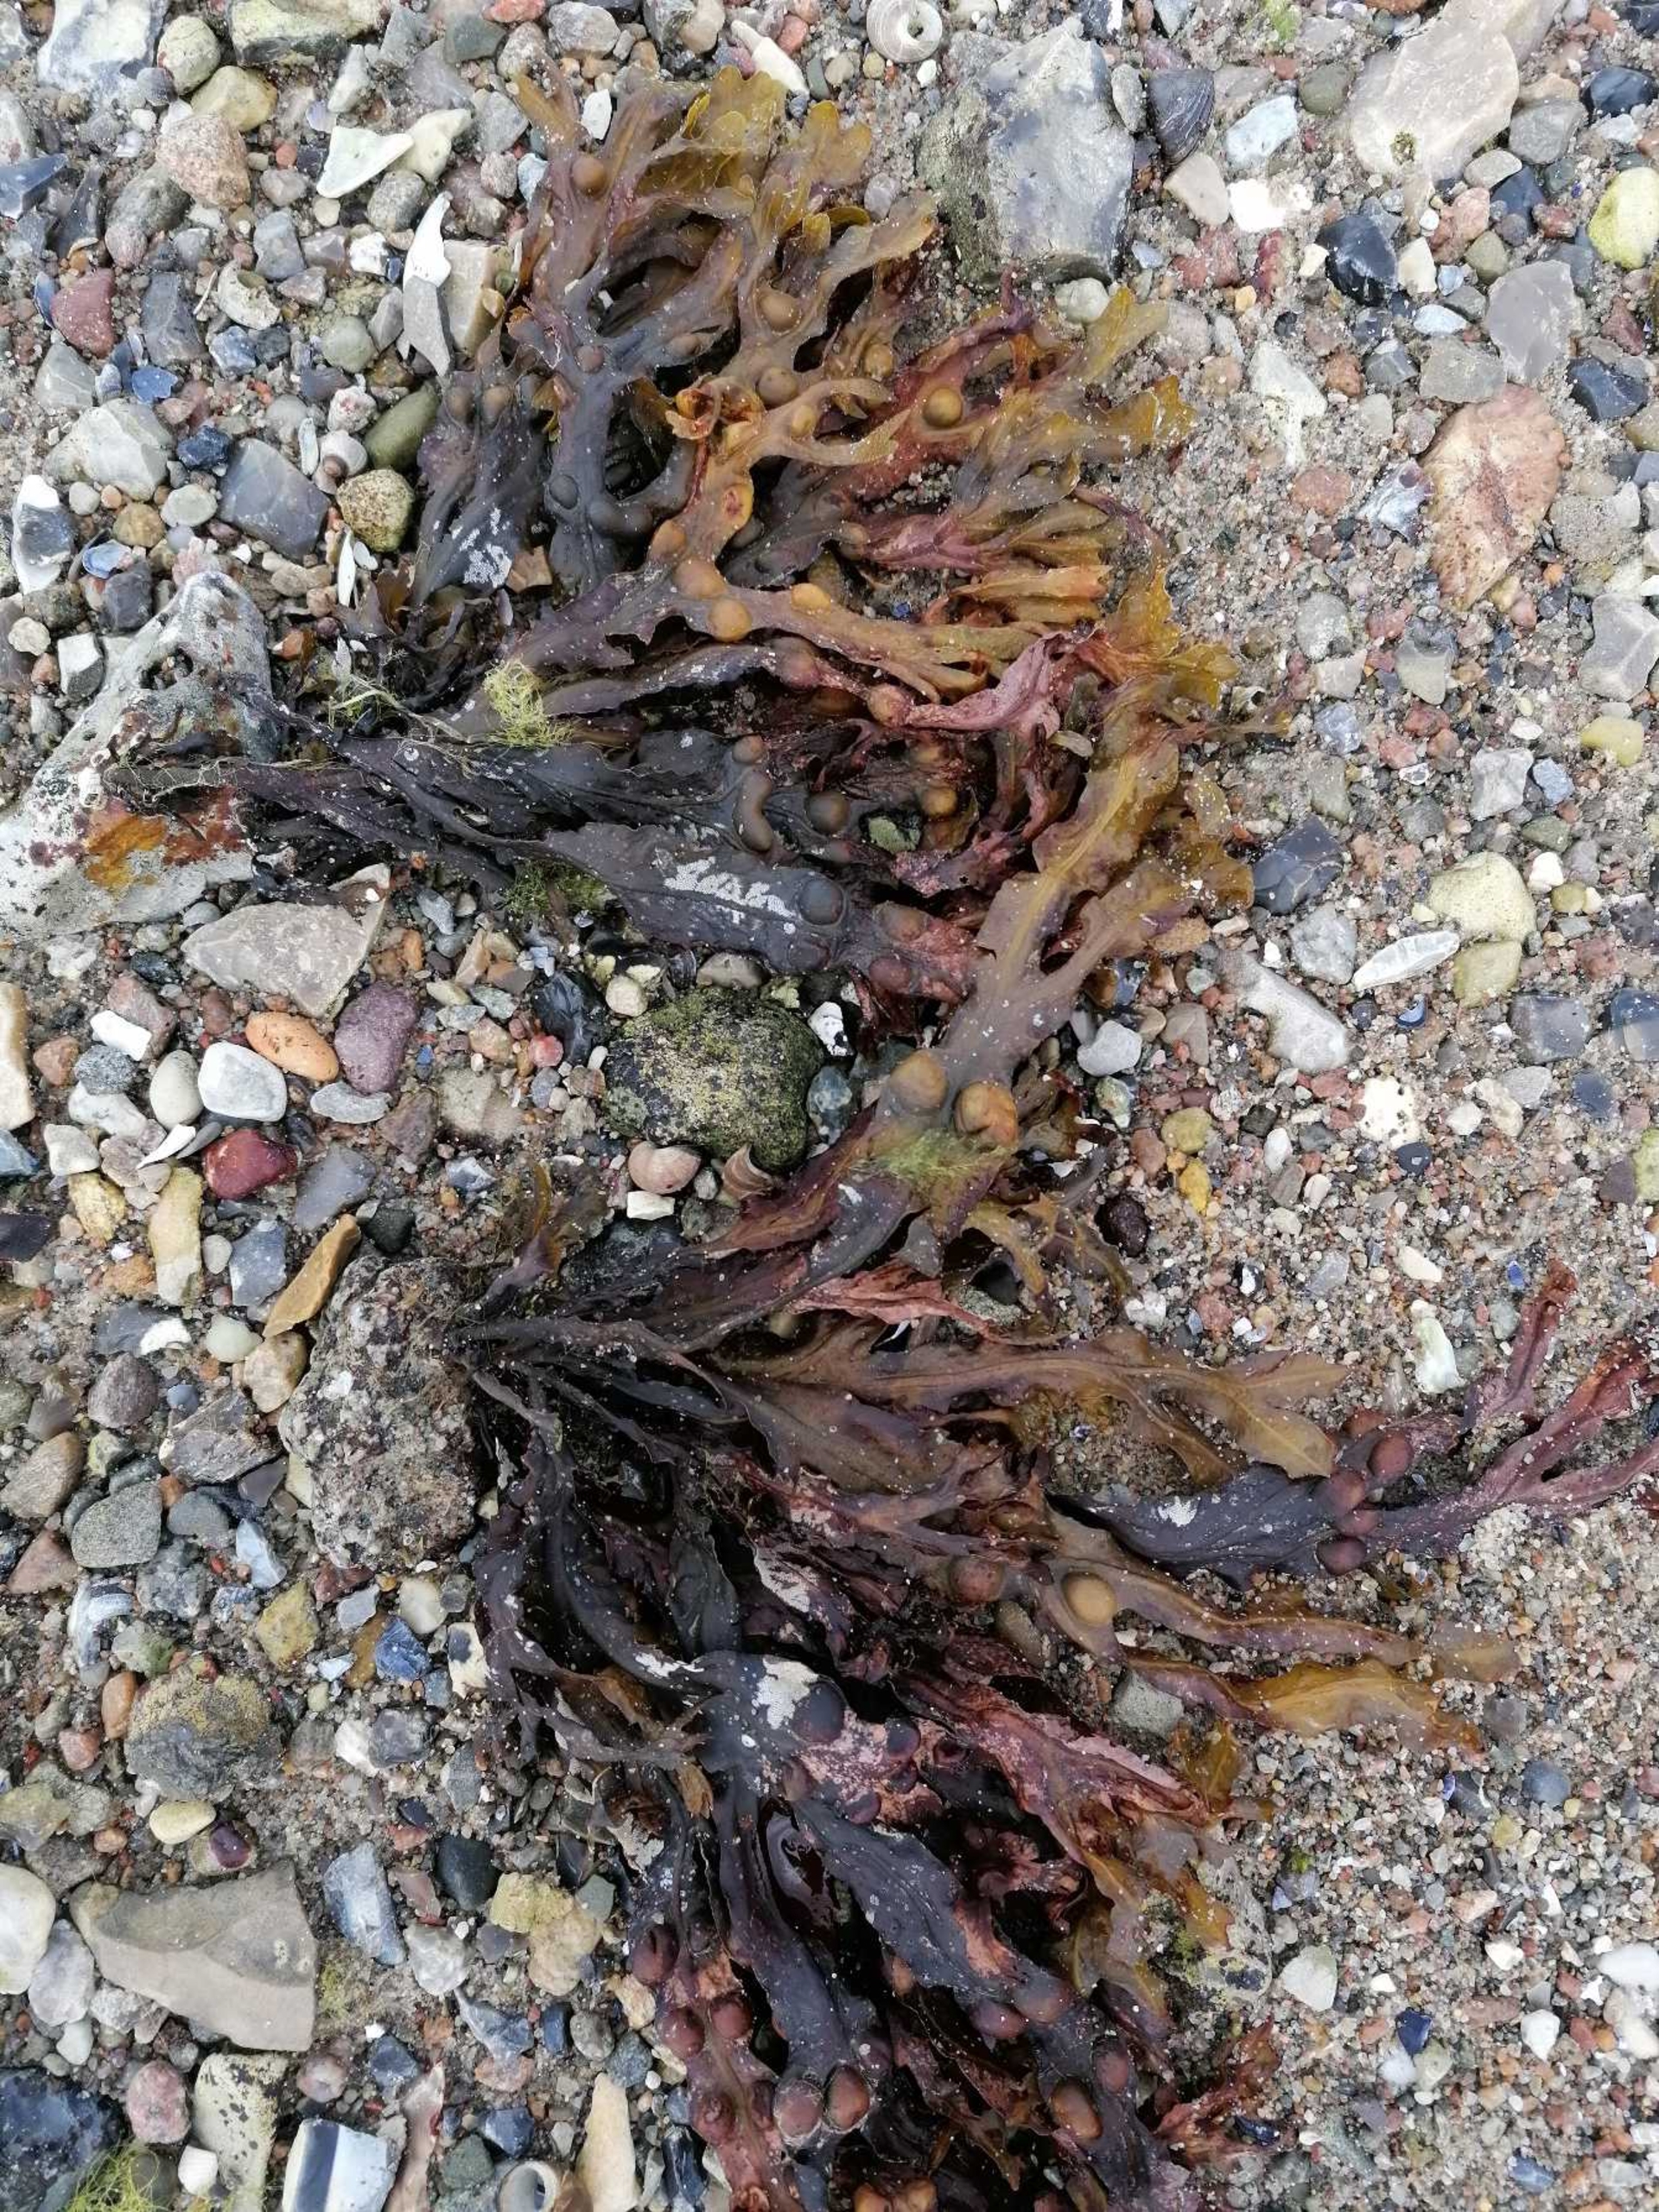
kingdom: Chromista
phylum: Ochrophyta
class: Phaeophyceae
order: Fucales
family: Fucaceae
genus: Fucus
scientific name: Fucus vesiculosus
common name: Blæretang
